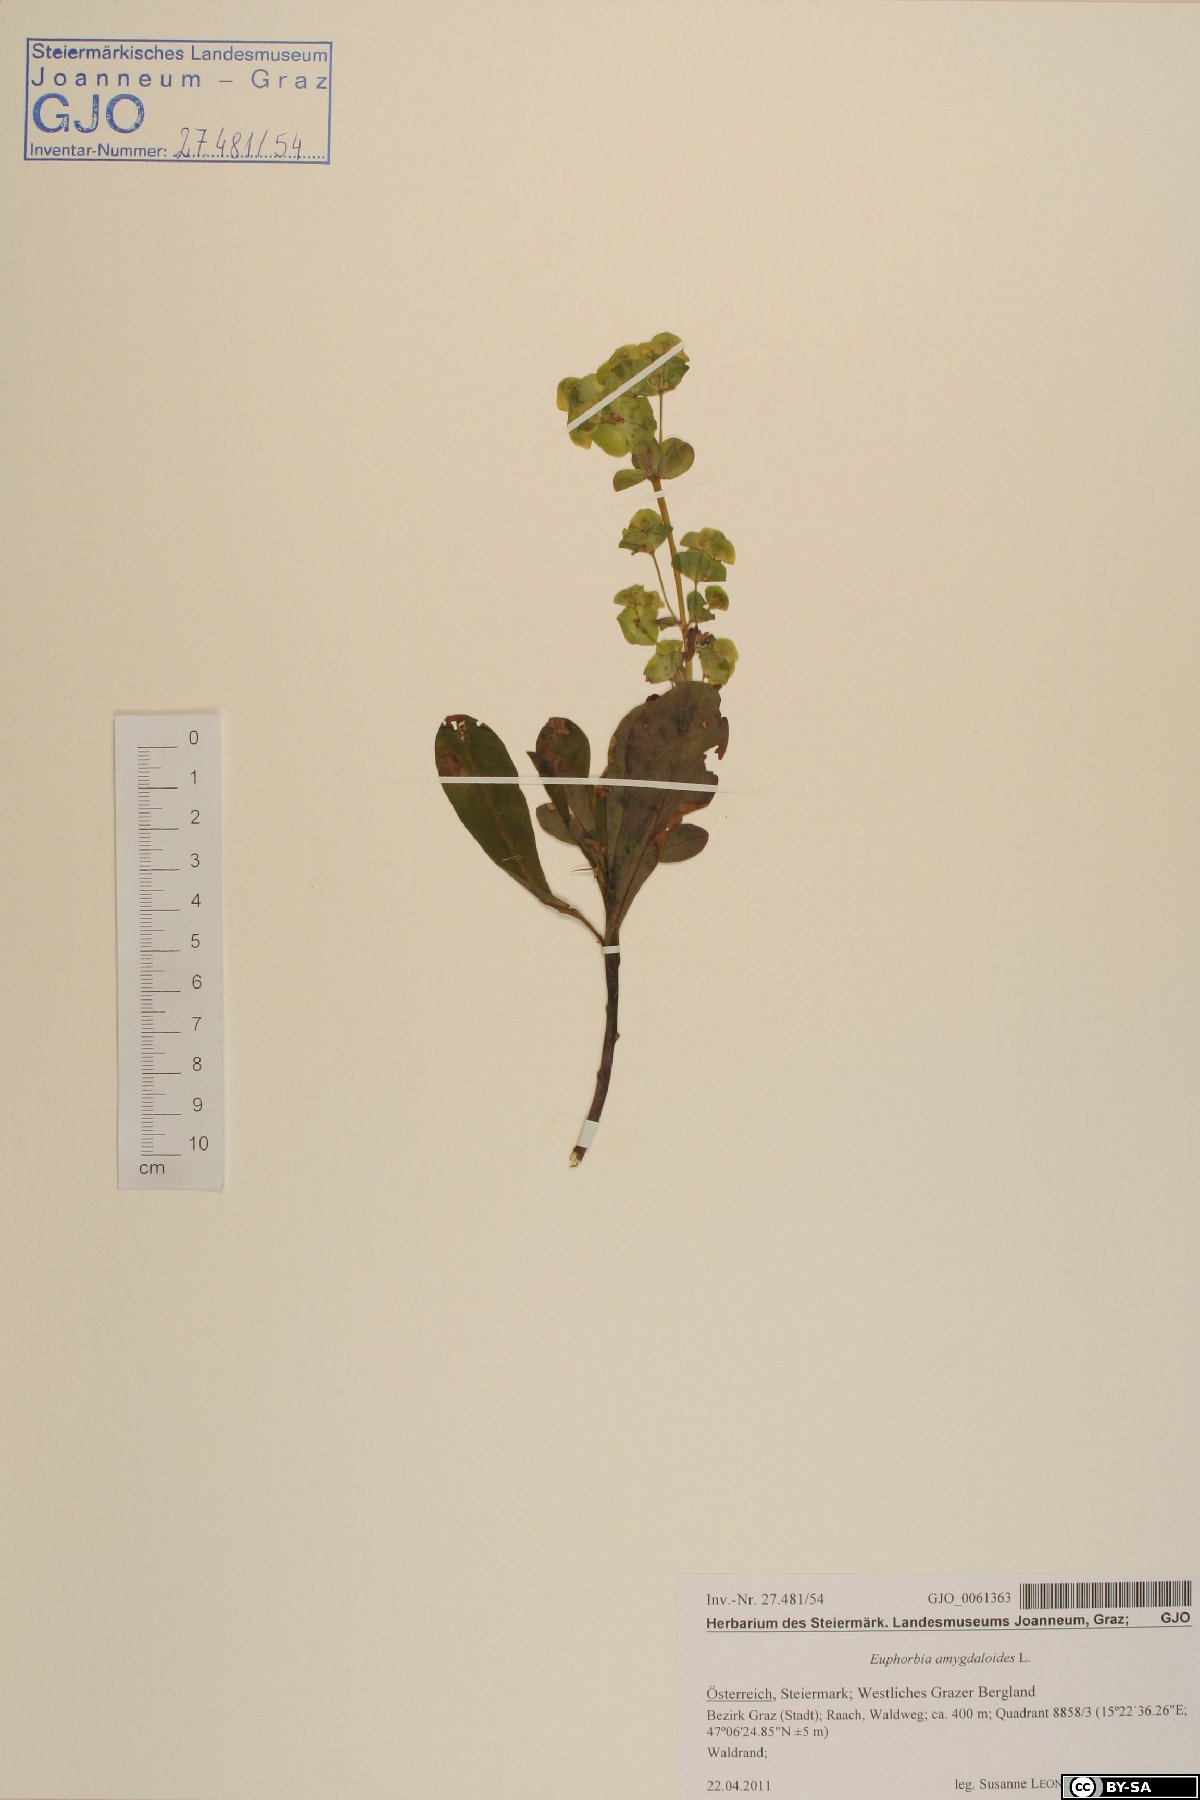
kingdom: Plantae
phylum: Tracheophyta
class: Magnoliopsida
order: Malpighiales
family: Euphorbiaceae
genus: Euphorbia
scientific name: Euphorbia amygdaloides
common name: Wood spurge
